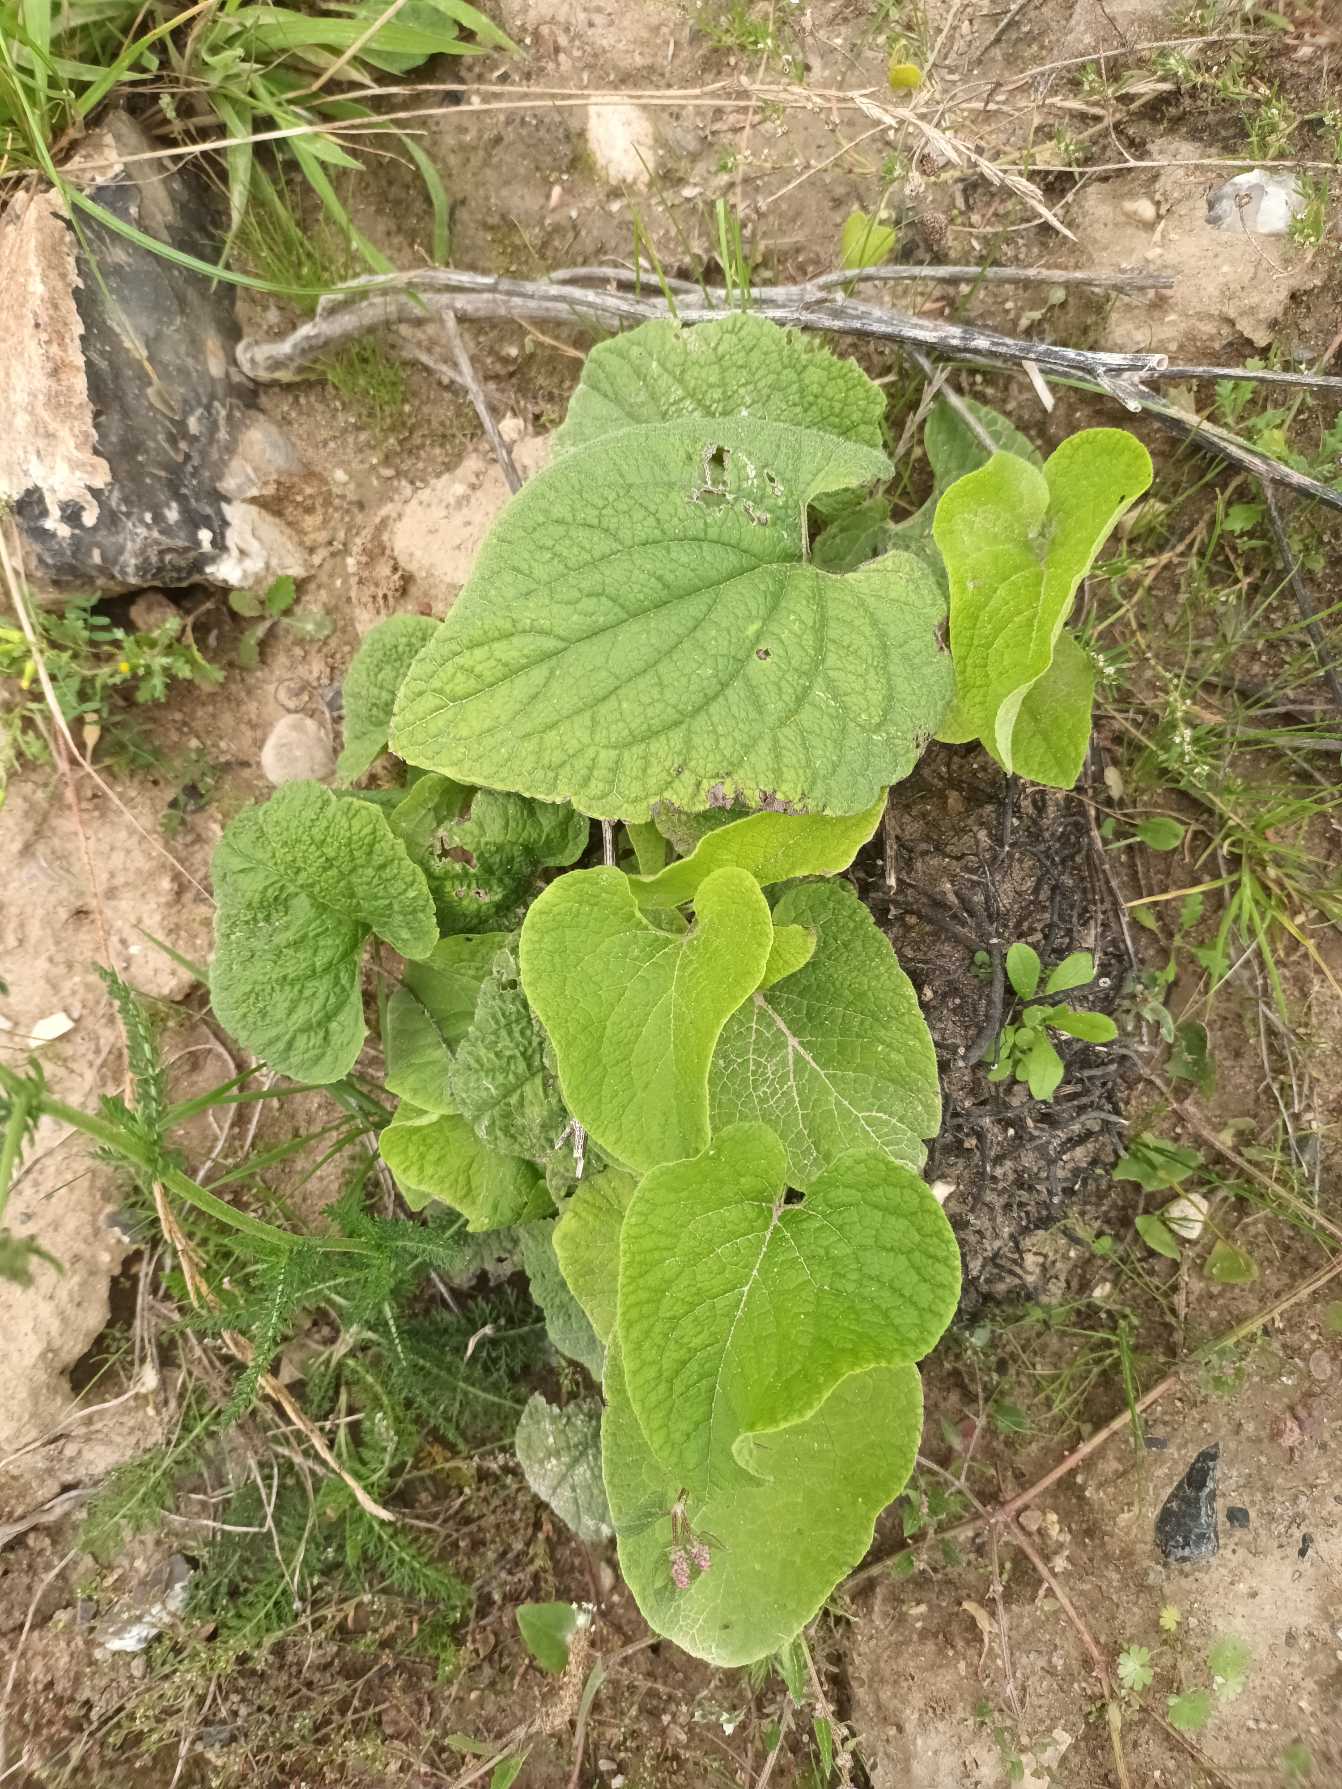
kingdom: Plantae
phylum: Tracheophyta
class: Magnoliopsida
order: Boraginales
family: Boraginaceae
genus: Brunnera
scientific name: Brunnera macrophylla
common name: Kærmindesøster
